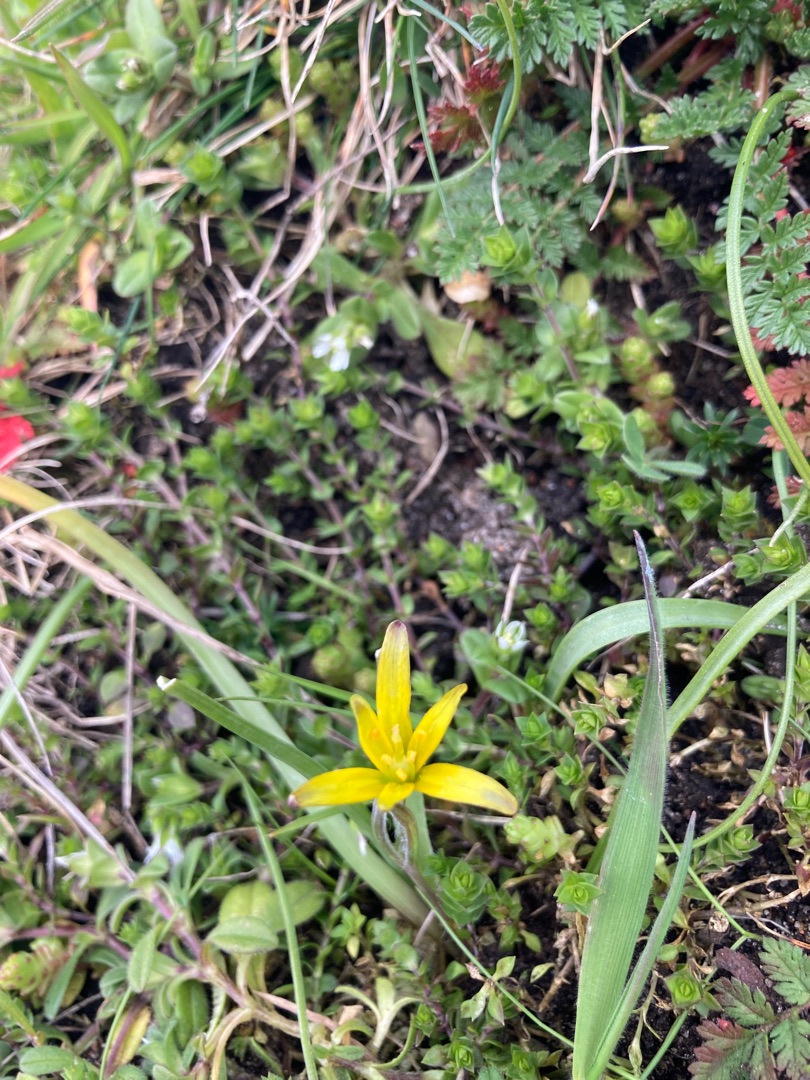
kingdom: Plantae
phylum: Tracheophyta
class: Liliopsida
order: Liliales
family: Liliaceae
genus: Gagea
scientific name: Gagea pratensis
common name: Eng-guldstjerne
